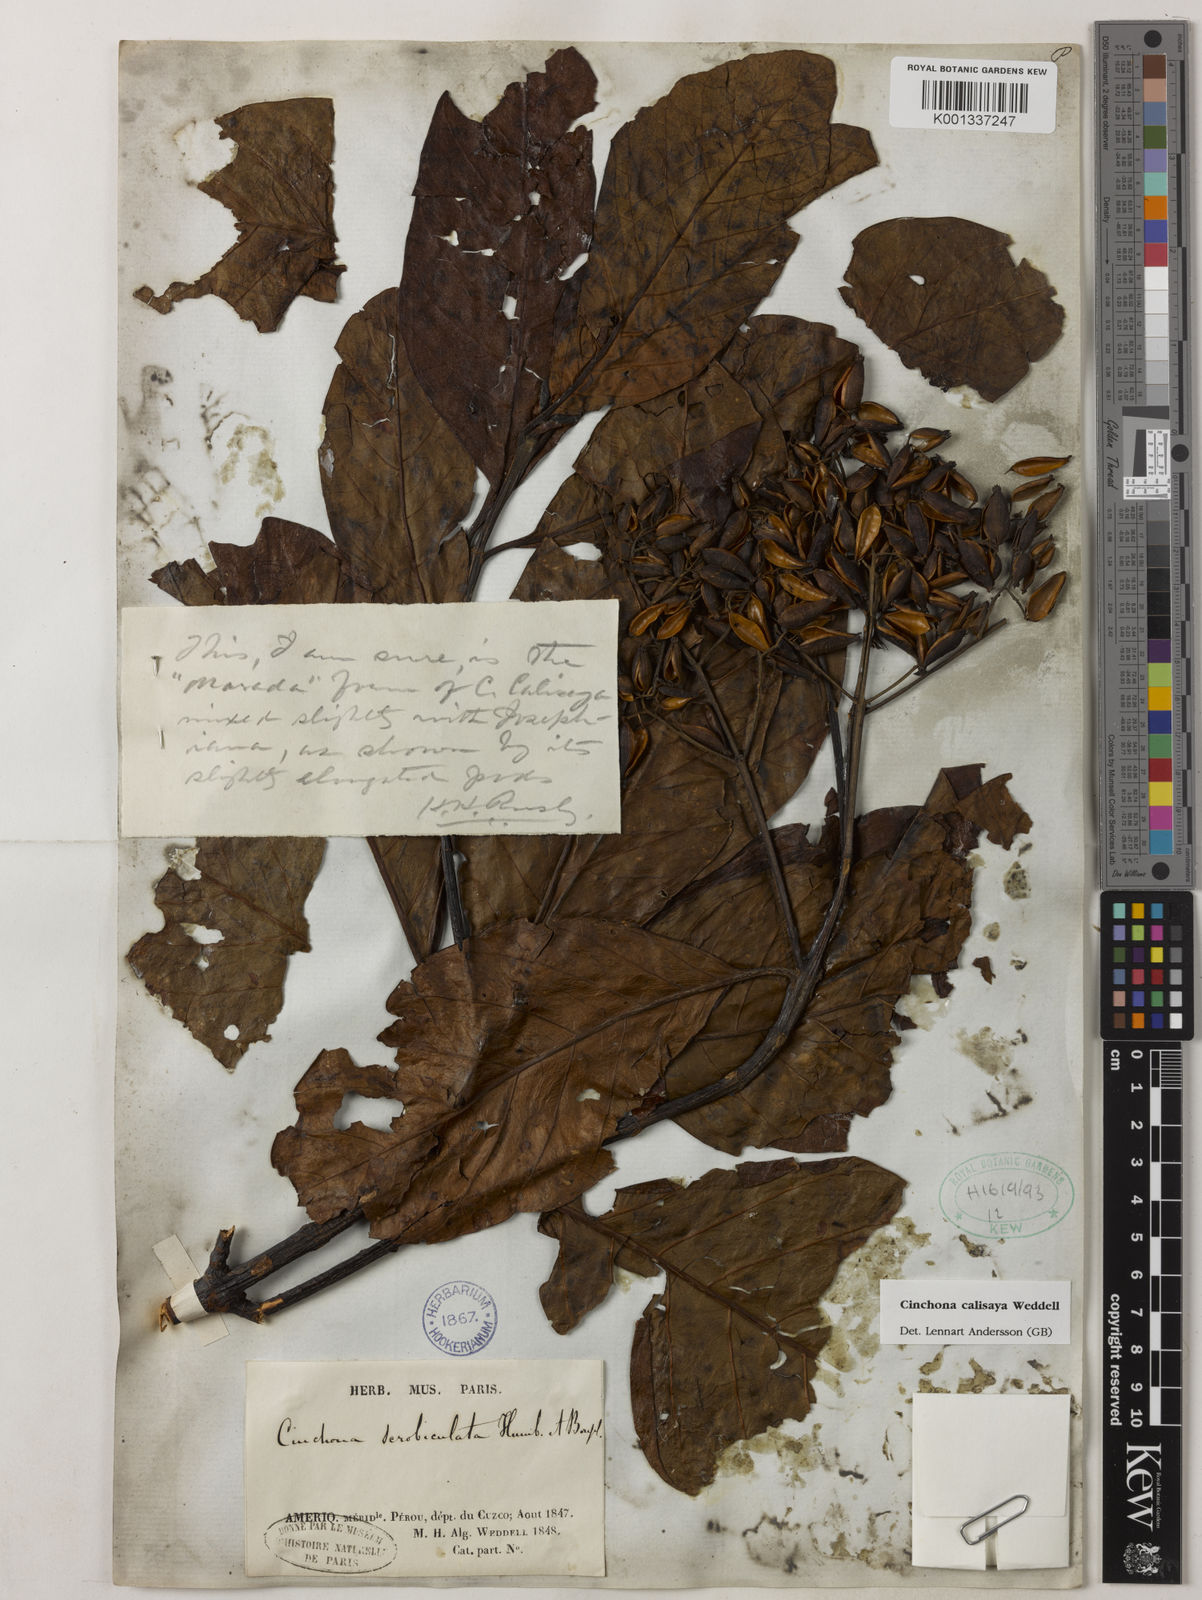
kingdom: Plantae
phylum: Tracheophyta
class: Magnoliopsida
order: Gentianales
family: Rubiaceae
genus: Cinchona
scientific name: Cinchona calisaya
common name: Ledgerbark
